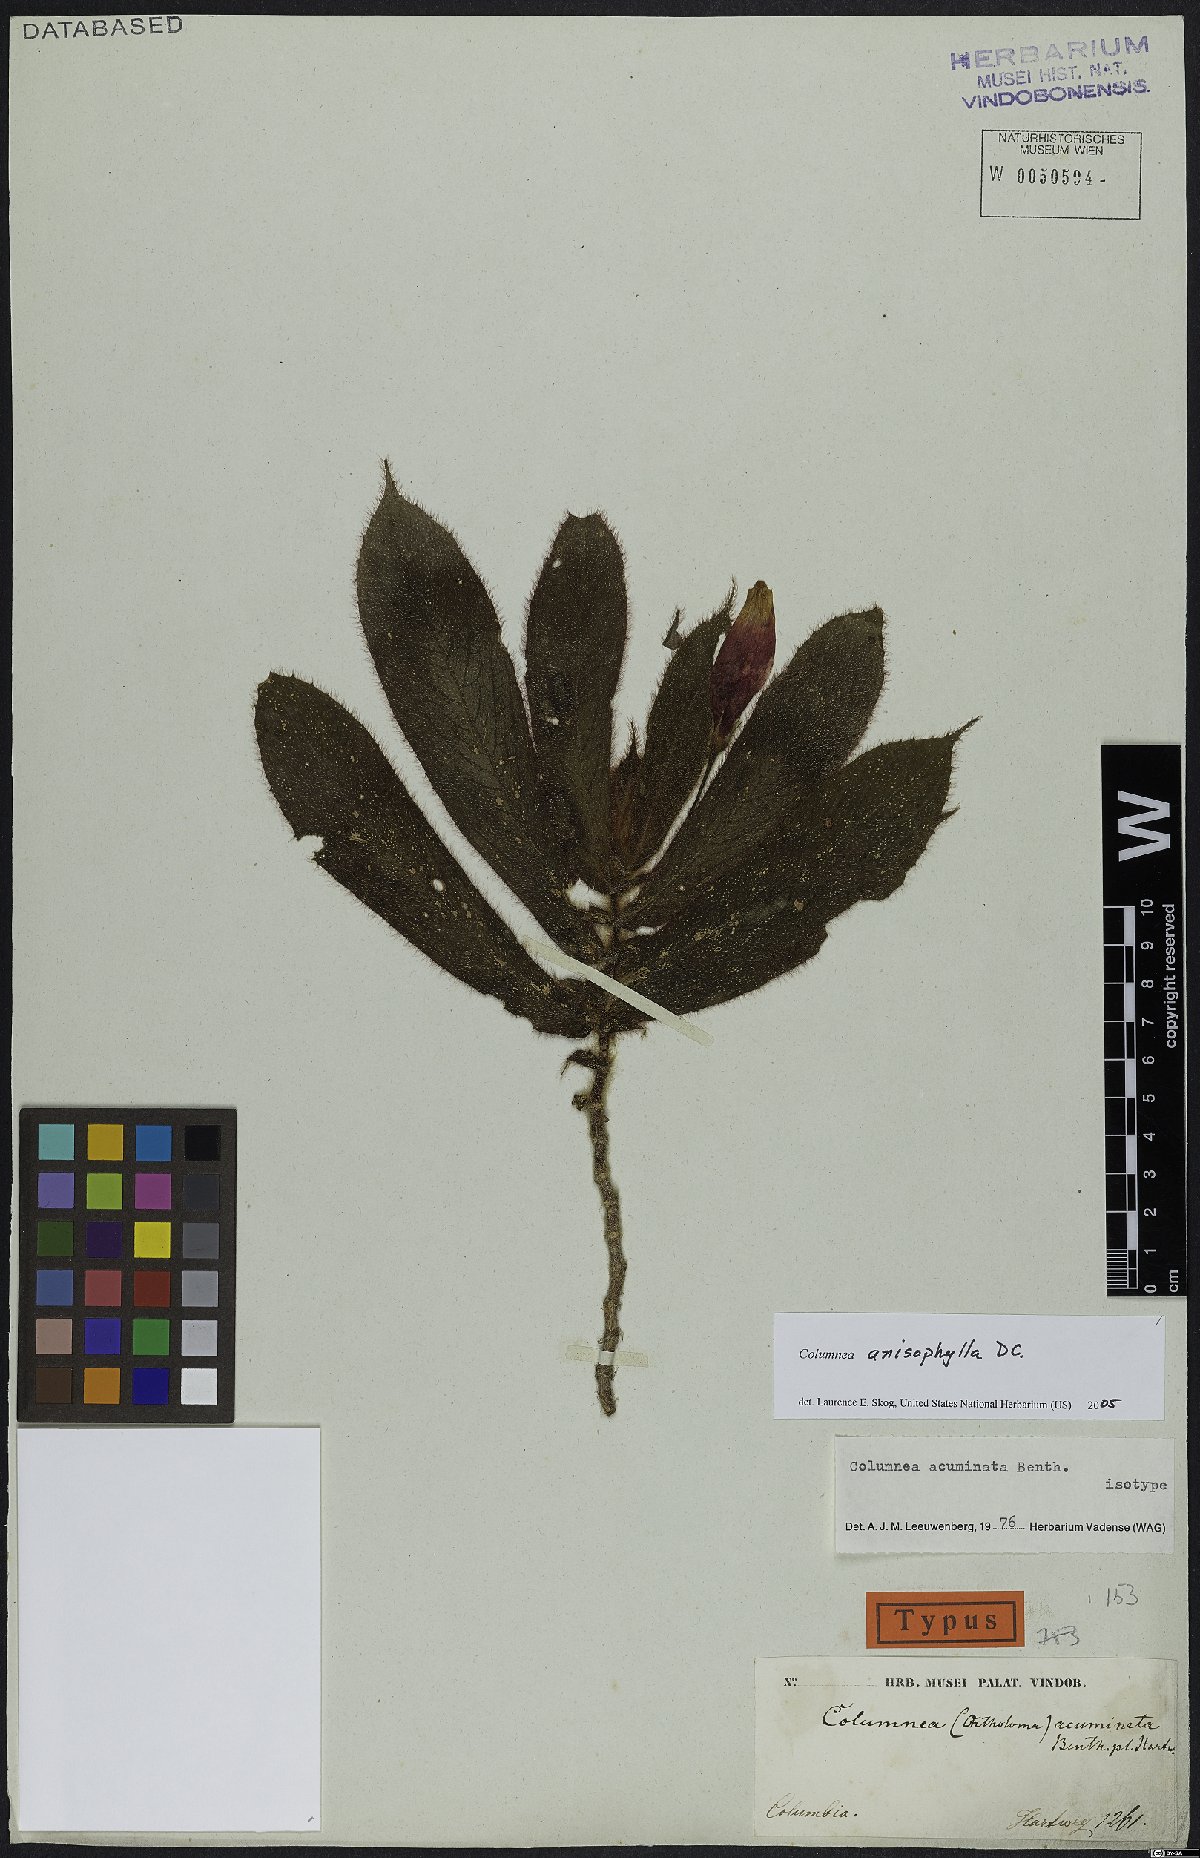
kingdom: Plantae
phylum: Tracheophyta
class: Magnoliopsida
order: Lamiales
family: Gesneriaceae
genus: Columnea
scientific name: Columnea anisophylla
